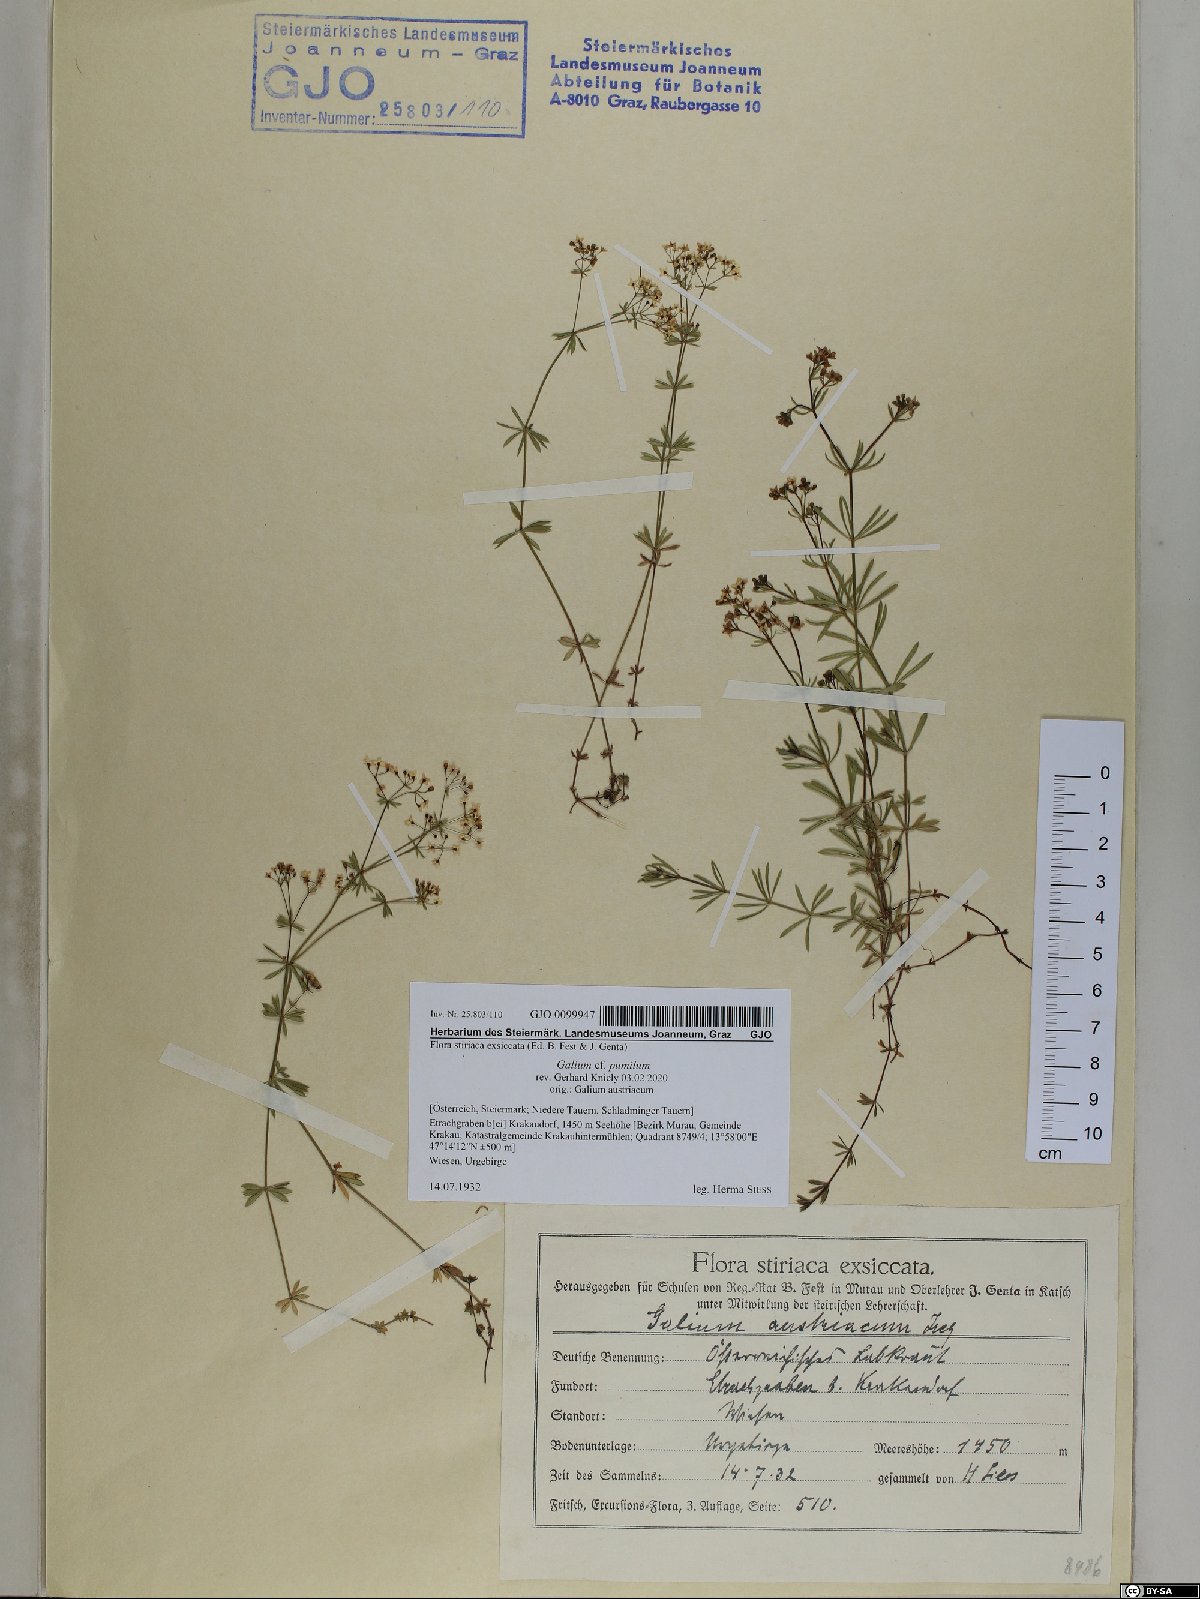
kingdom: Plantae
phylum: Tracheophyta
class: Magnoliopsida
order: Gentianales
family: Rubiaceae
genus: Galium
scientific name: Galium pumilum
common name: Slender bedstraw
